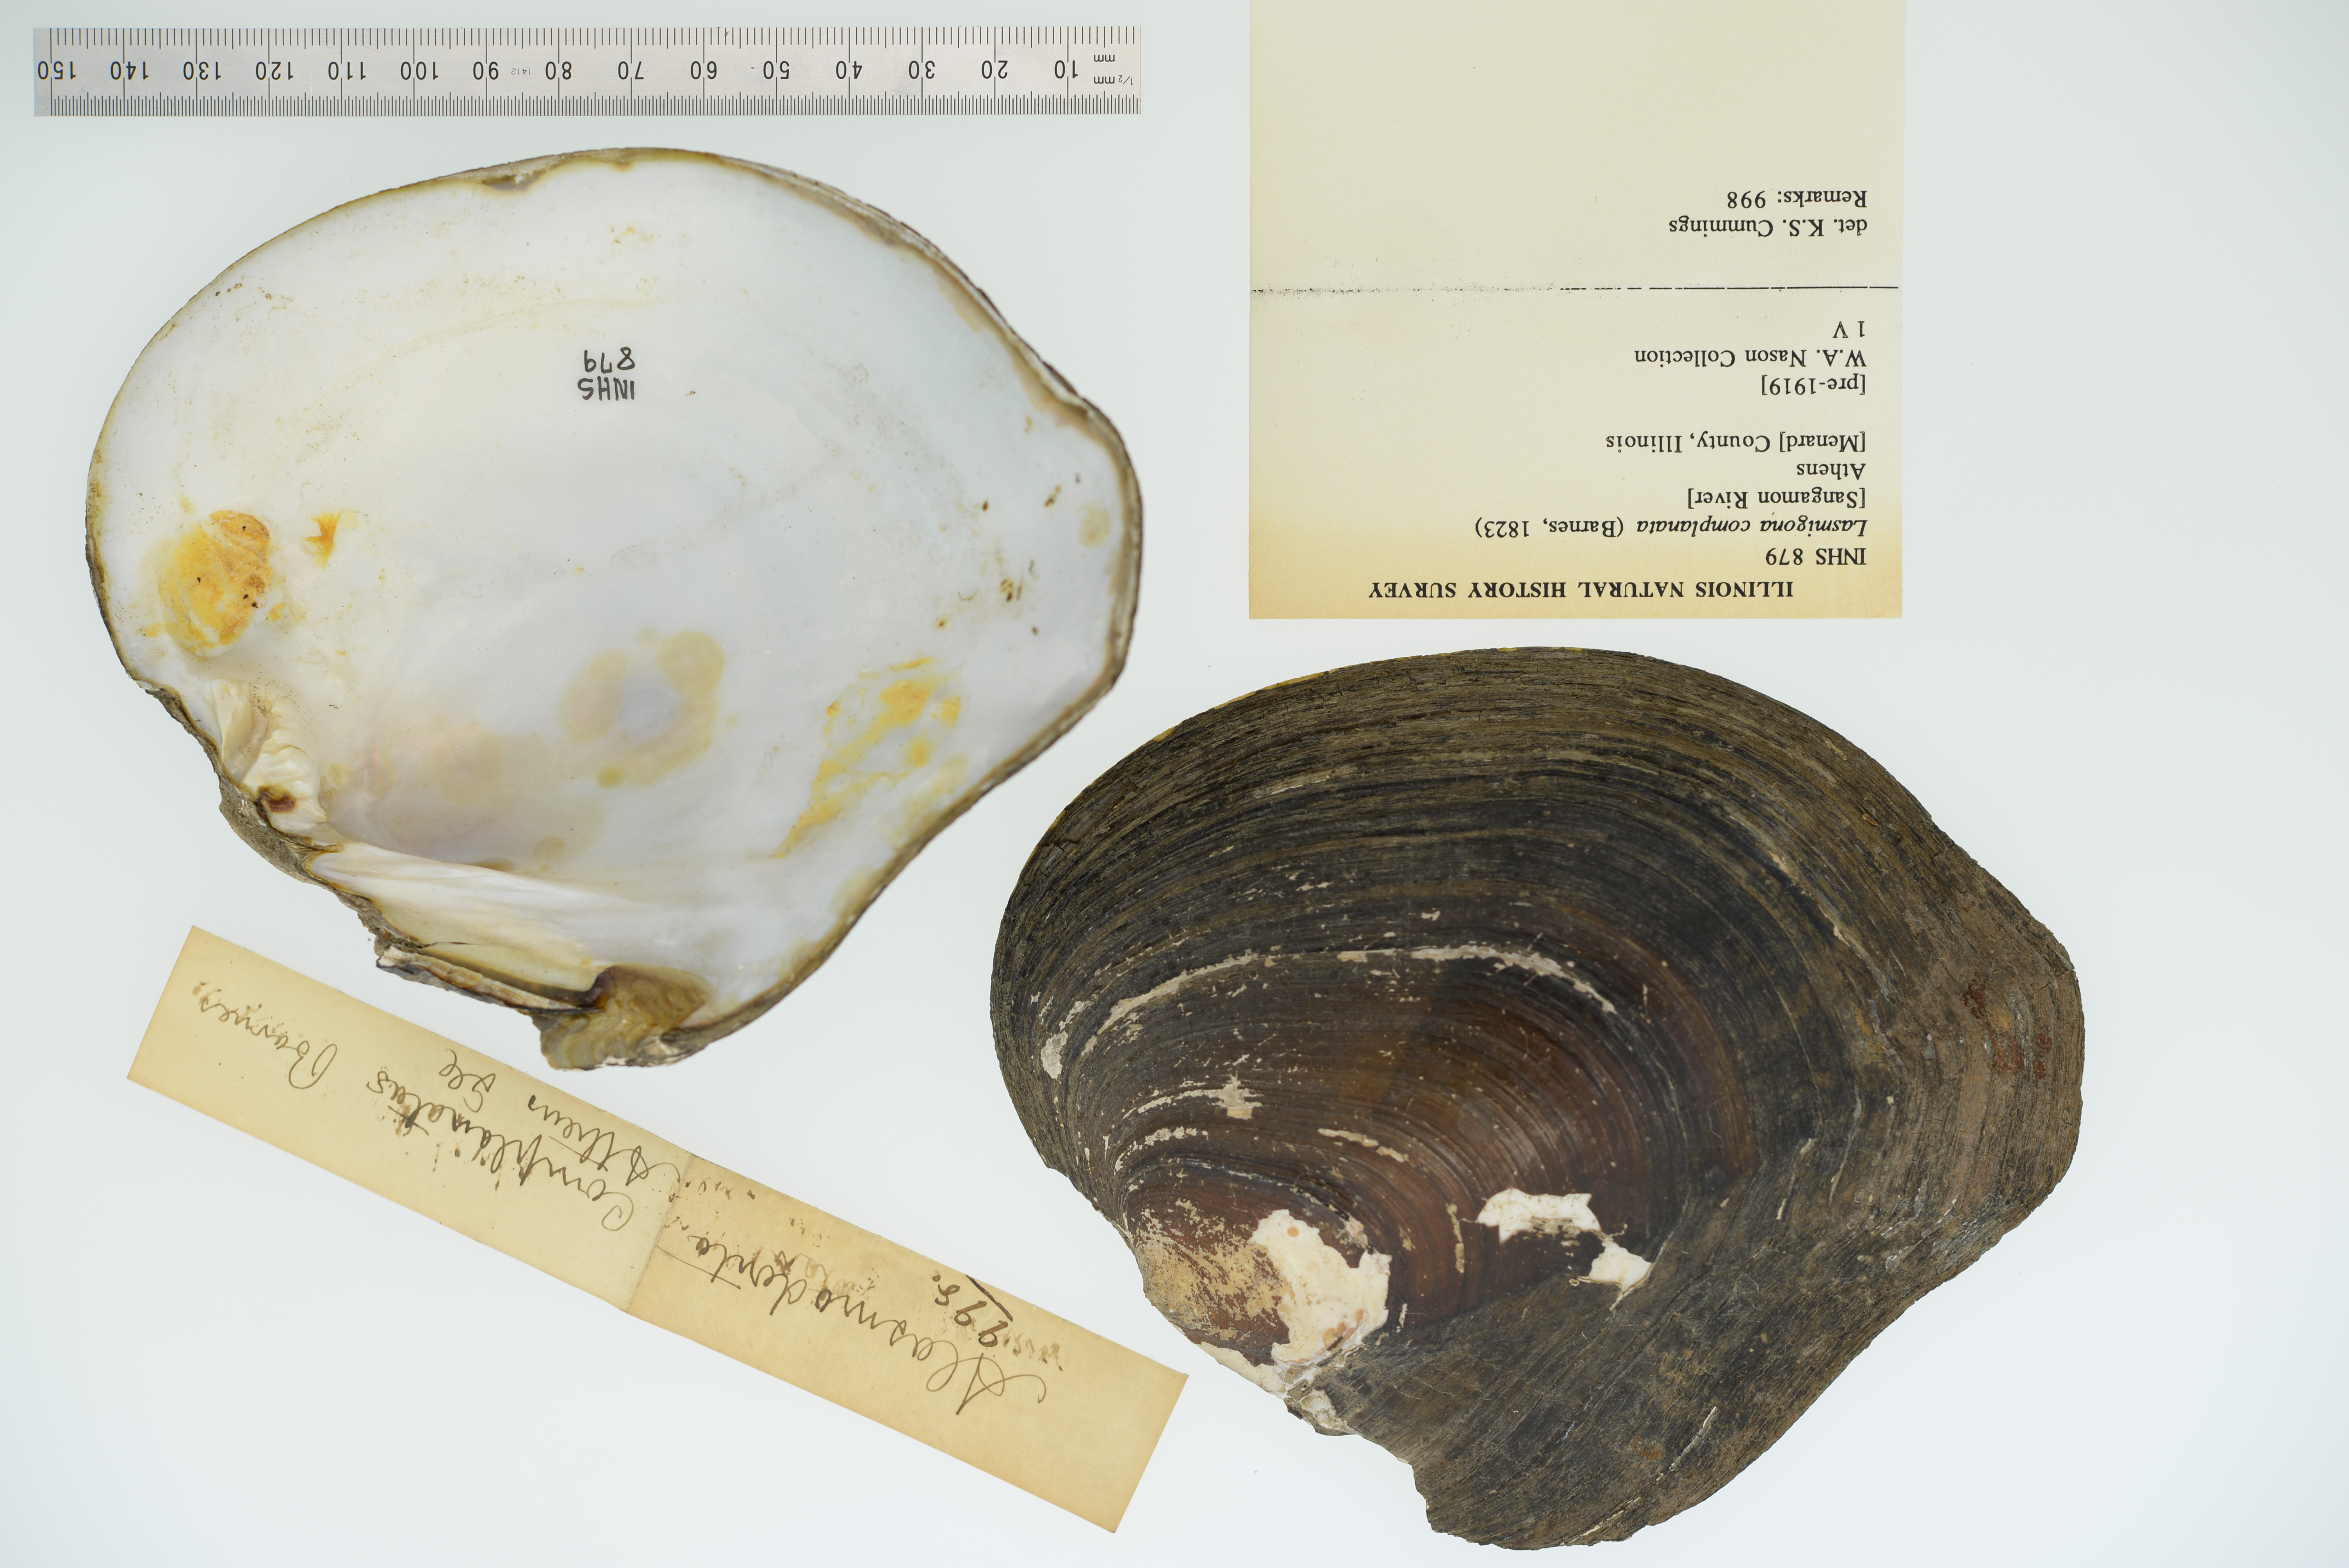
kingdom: Animalia
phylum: Mollusca
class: Bivalvia
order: Unionida
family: Unionidae
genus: Lasmigona
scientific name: Lasmigona complanata
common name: White heelsplitter
